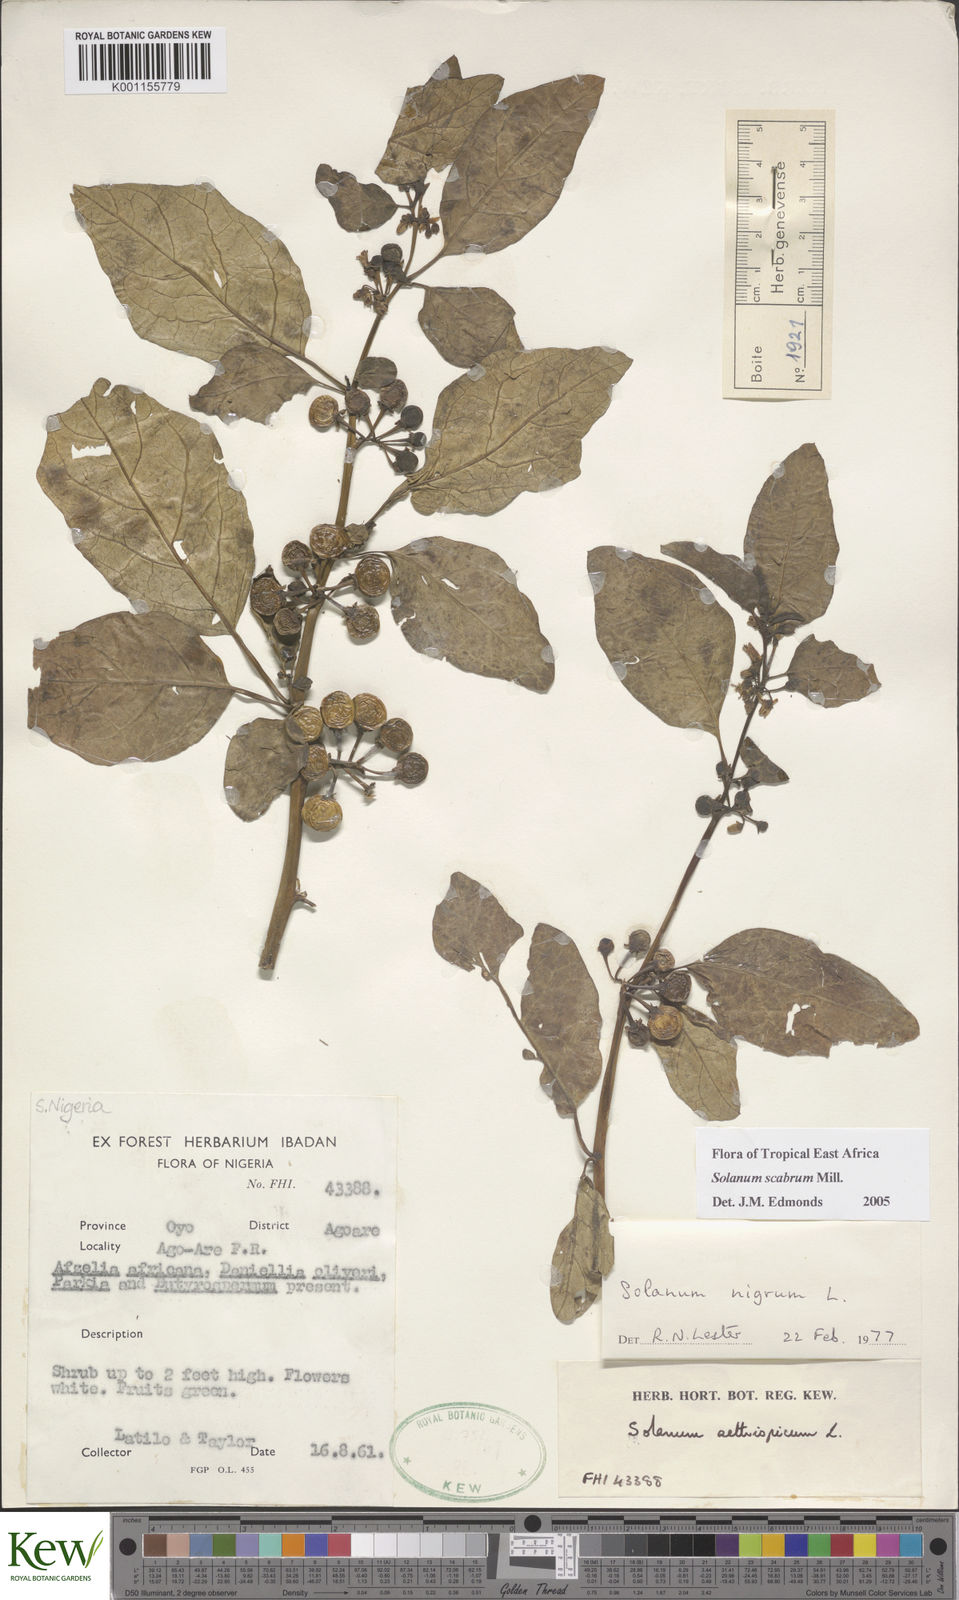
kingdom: Plantae
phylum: Tracheophyta
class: Magnoliopsida
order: Solanales
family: Solanaceae
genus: Solanum
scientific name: Solanum aethiopicum
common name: Gilo
